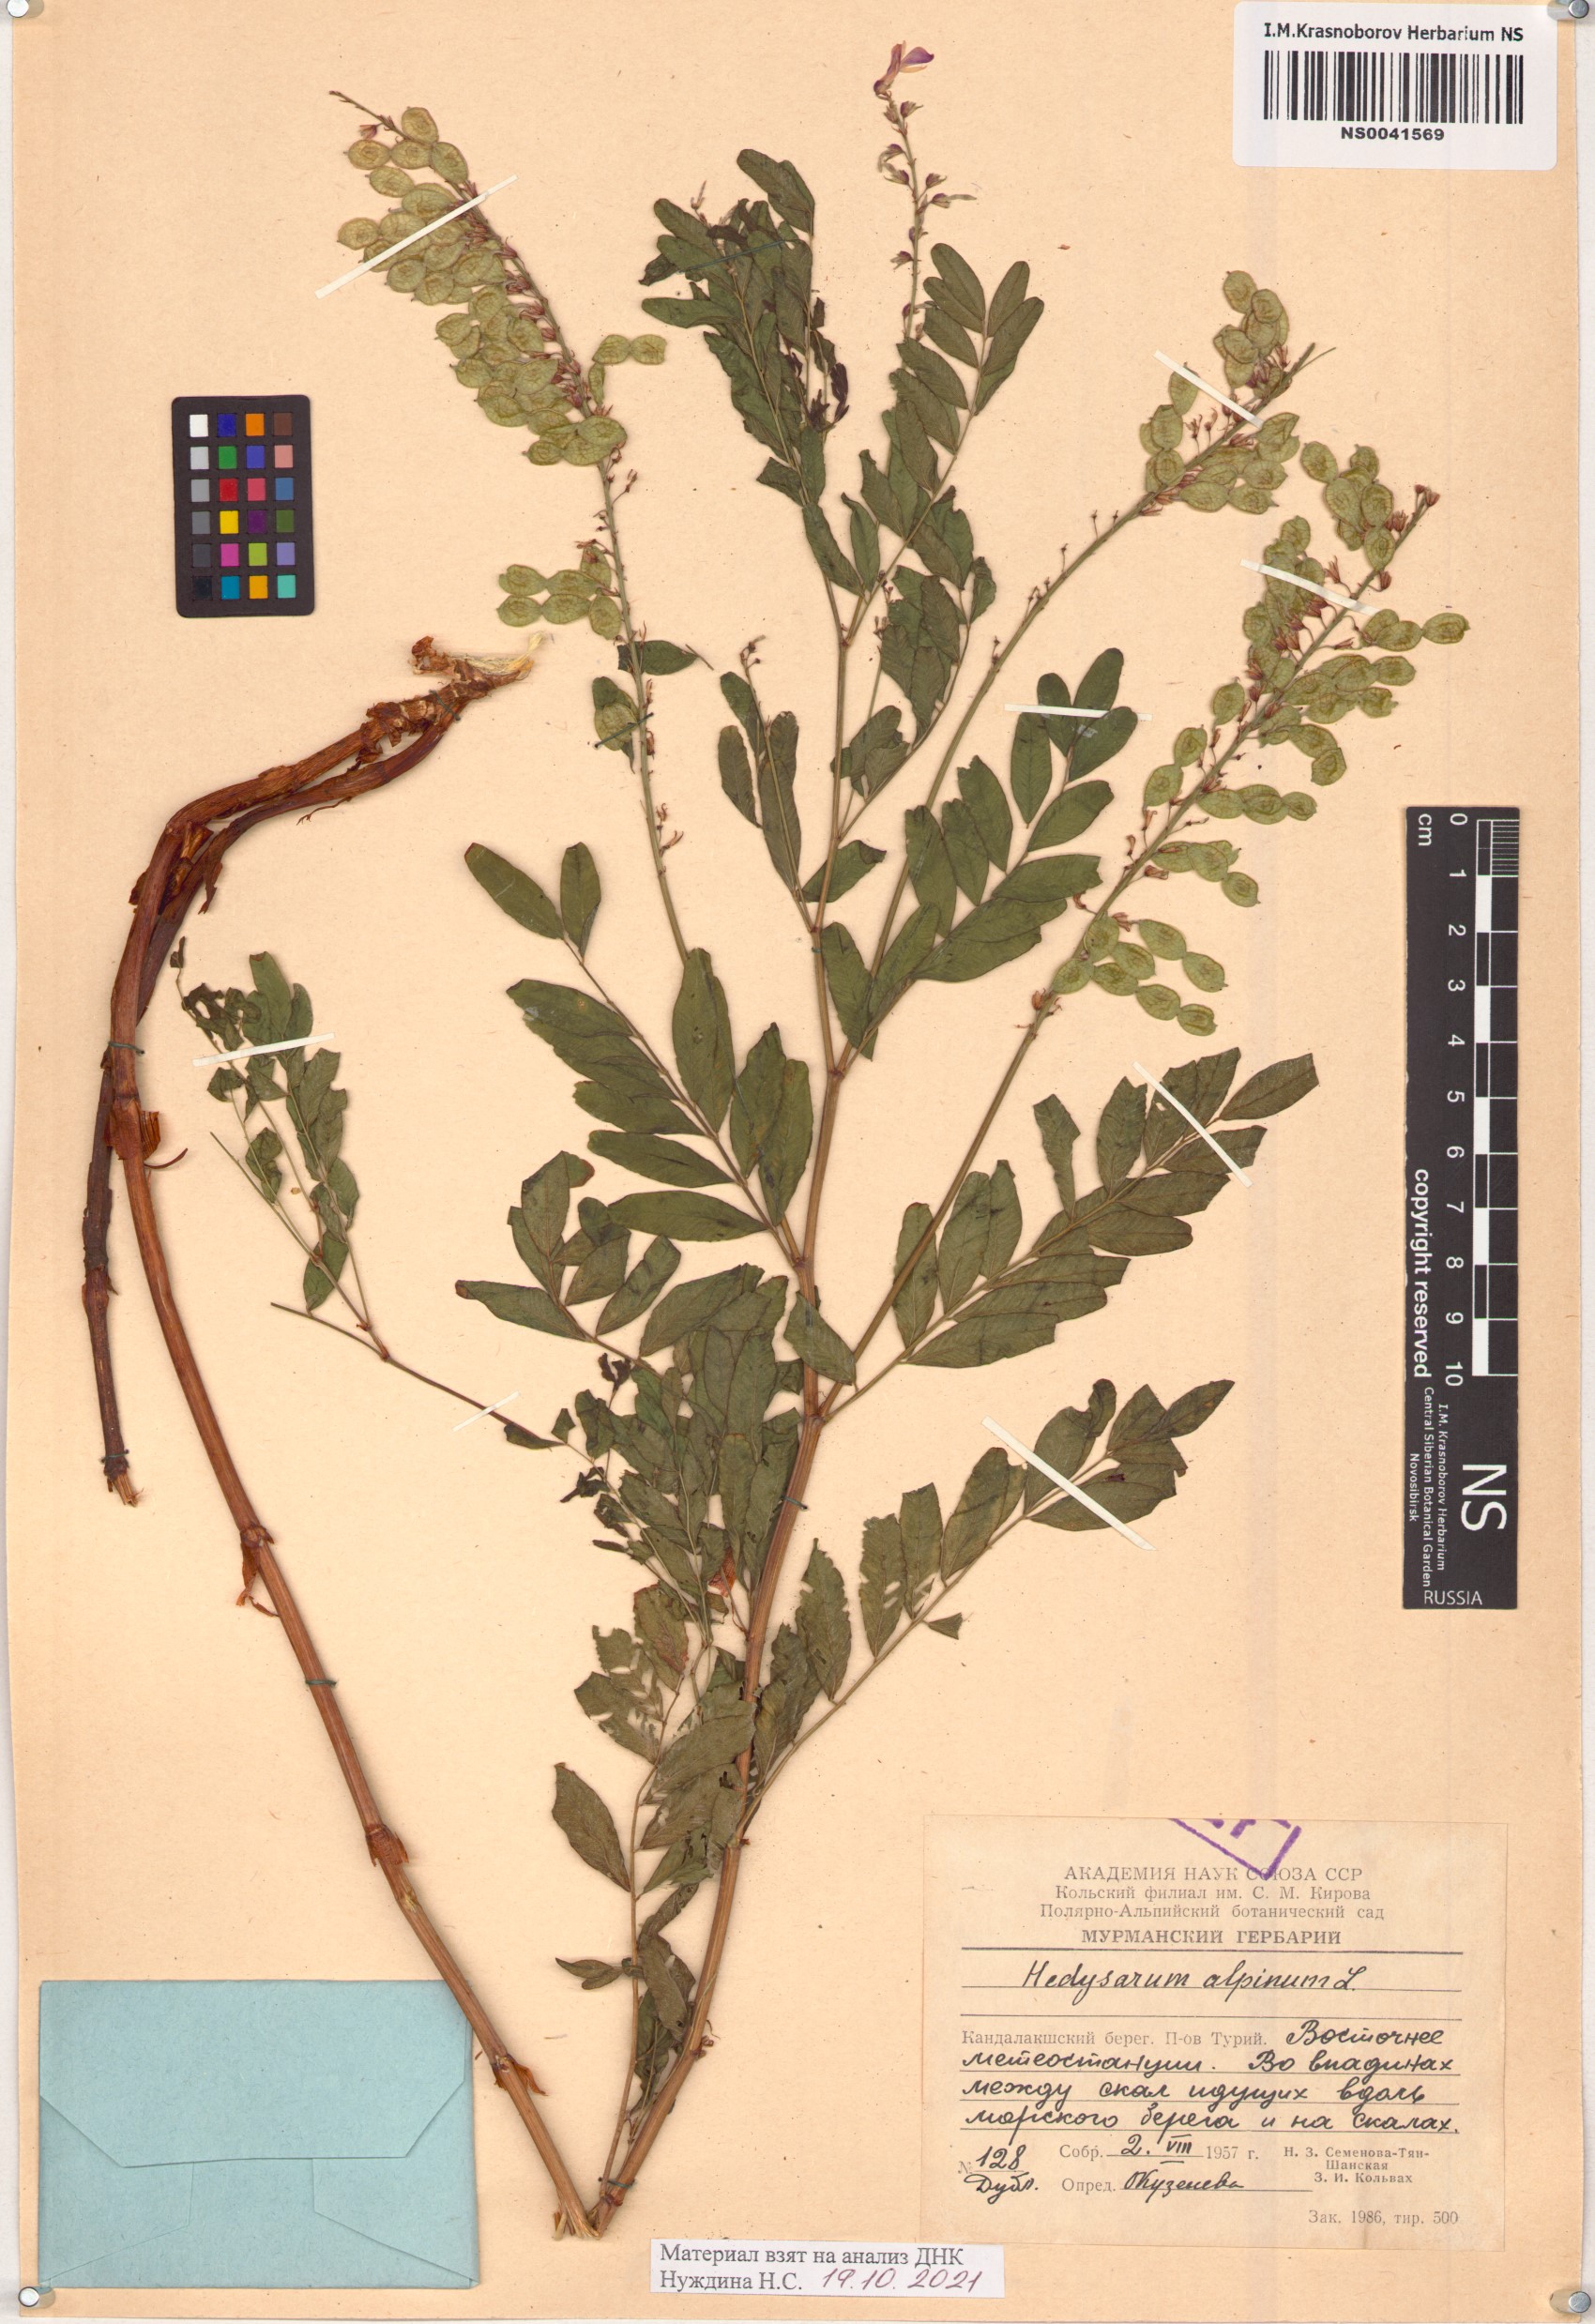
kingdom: Plantae
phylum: Tracheophyta
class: Magnoliopsida
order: Fabales
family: Fabaceae
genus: Hedysarum
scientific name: Hedysarum alpinum
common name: Alpine sweet-vetch
